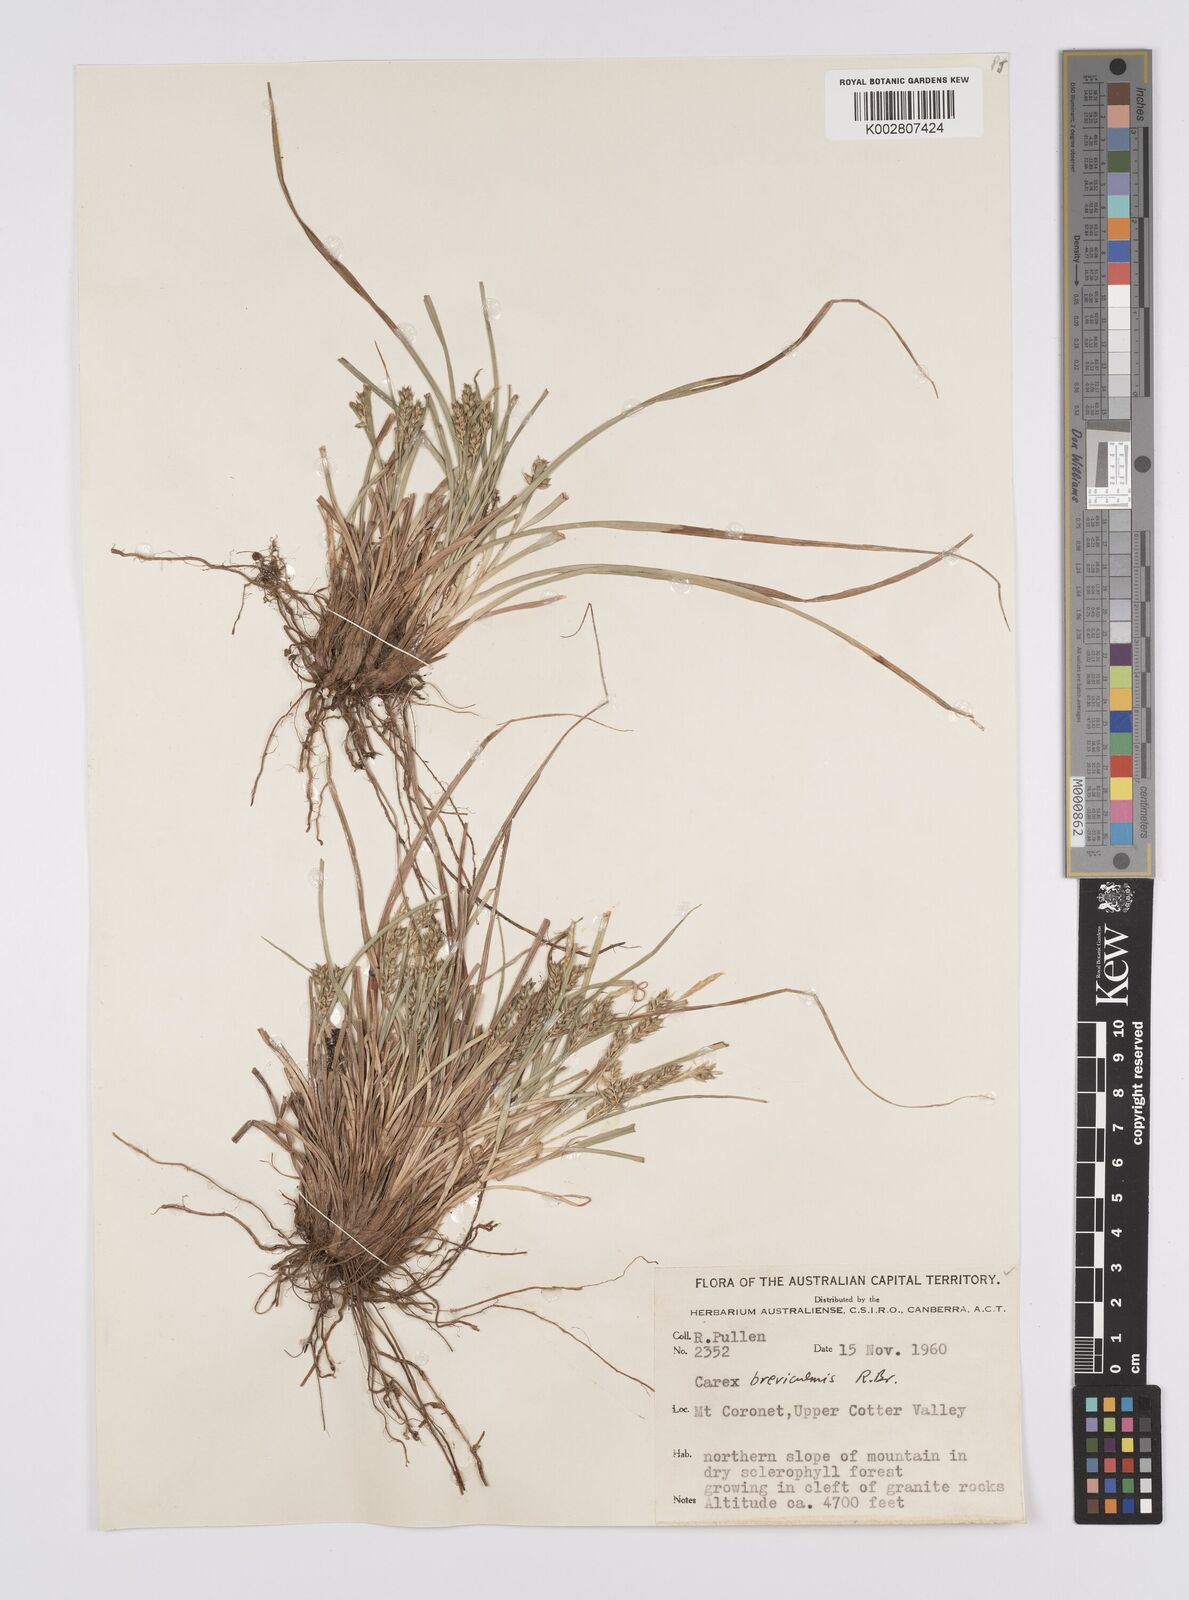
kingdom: Plantae
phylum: Tracheophyta
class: Liliopsida
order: Poales
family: Cyperaceae
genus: Carex
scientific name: Carex breviculmis
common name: Asian shortstem sedge
